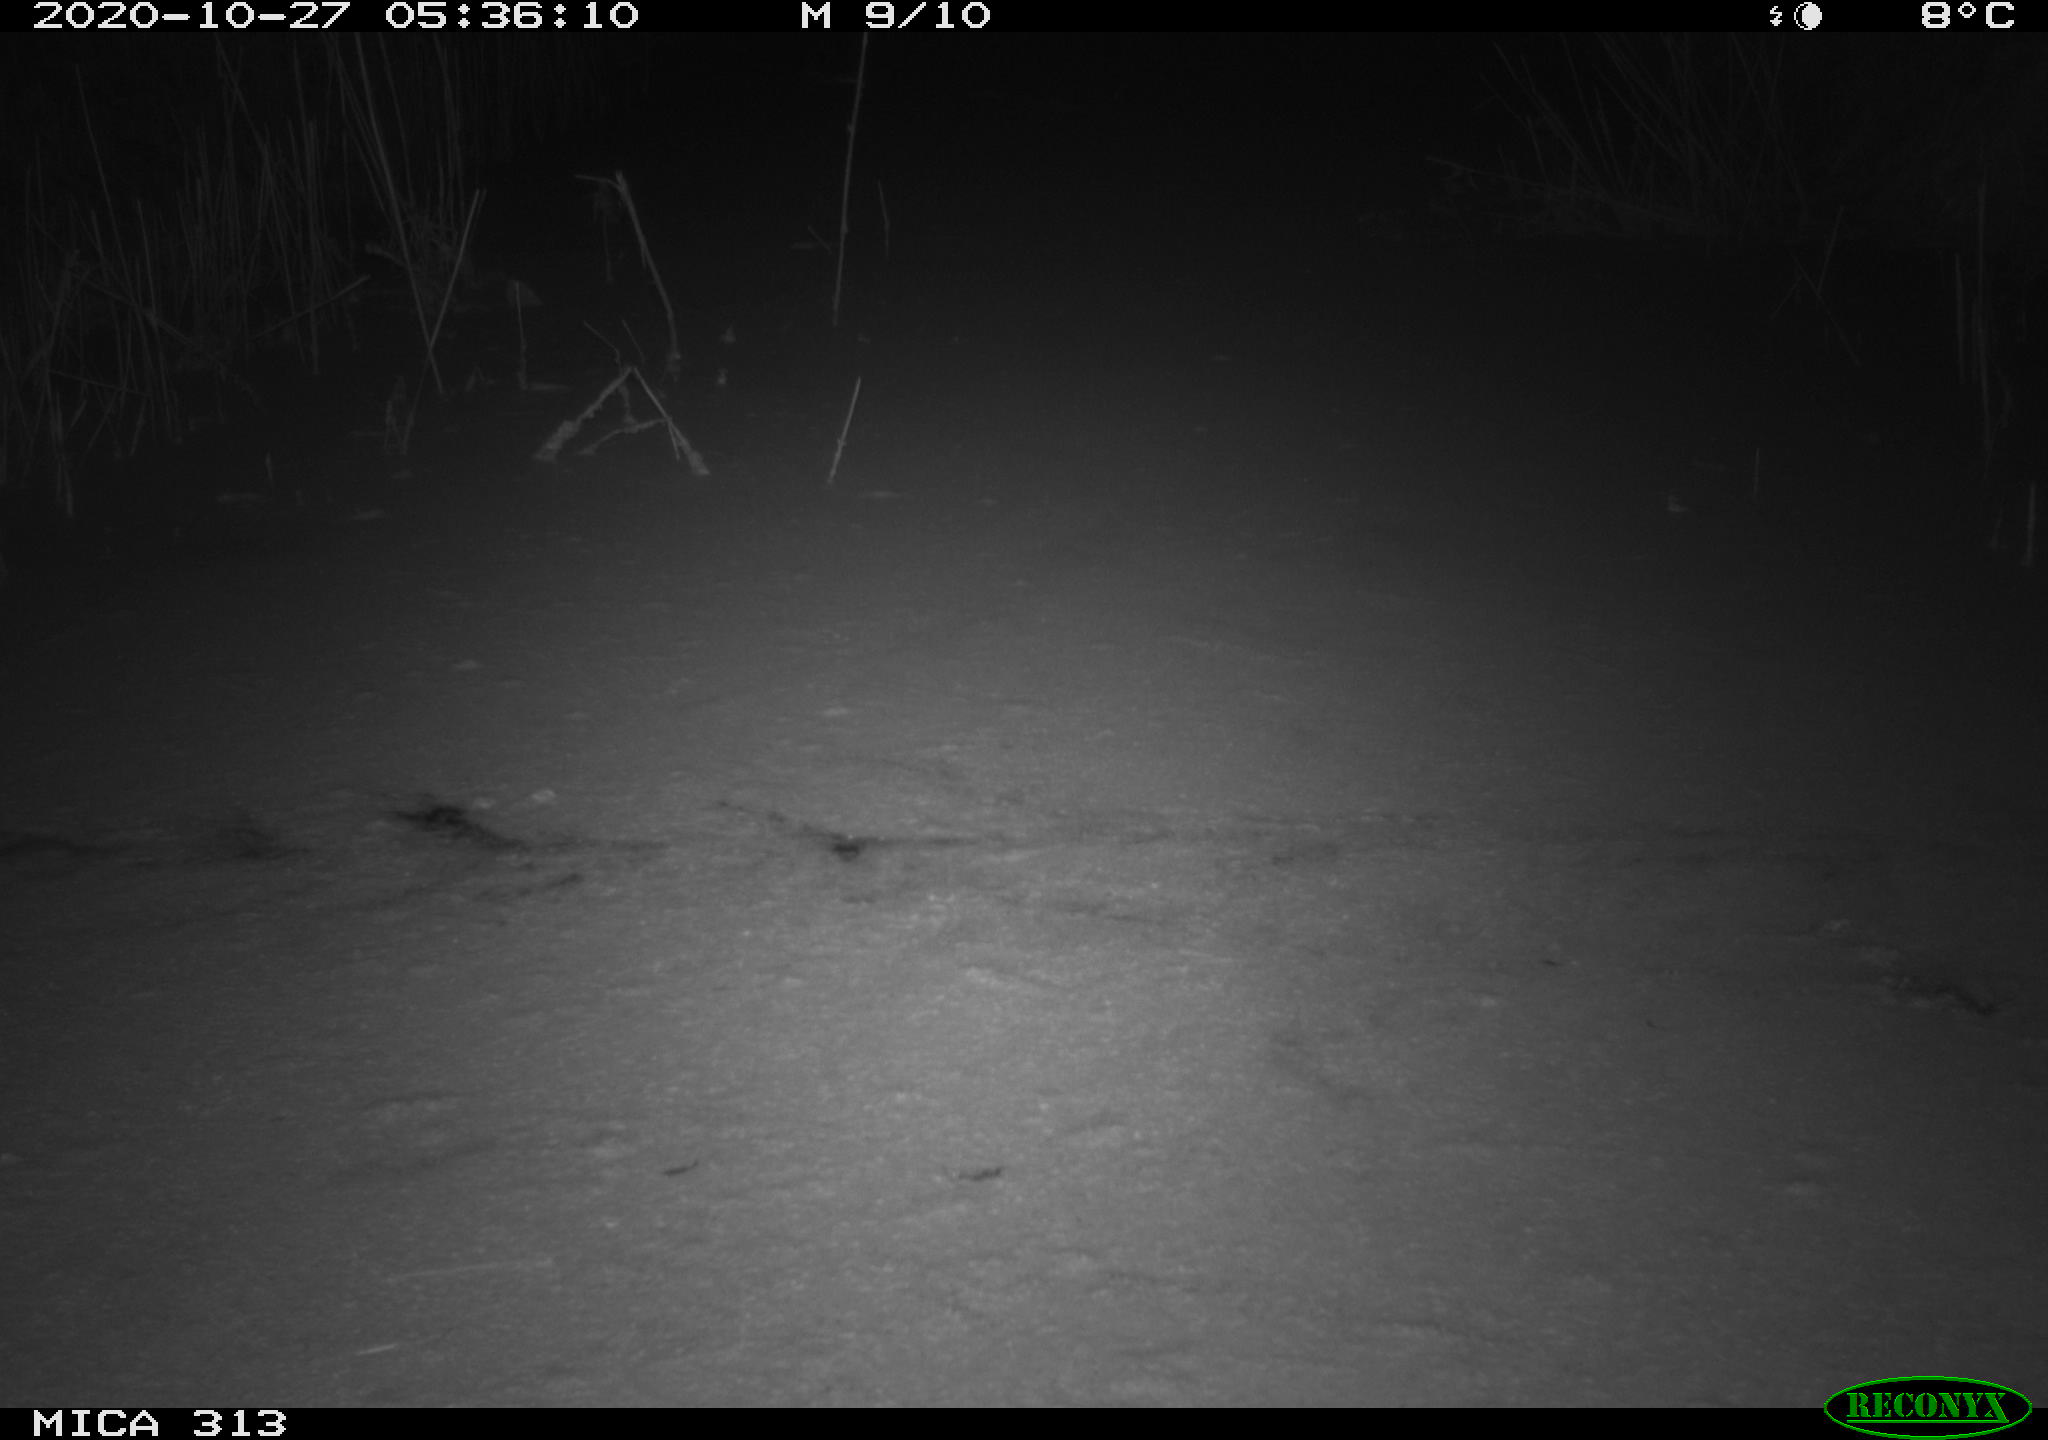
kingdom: Animalia
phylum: Chordata
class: Mammalia
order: Rodentia
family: Muridae
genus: Rattus
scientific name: Rattus norvegicus
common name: Brown rat
